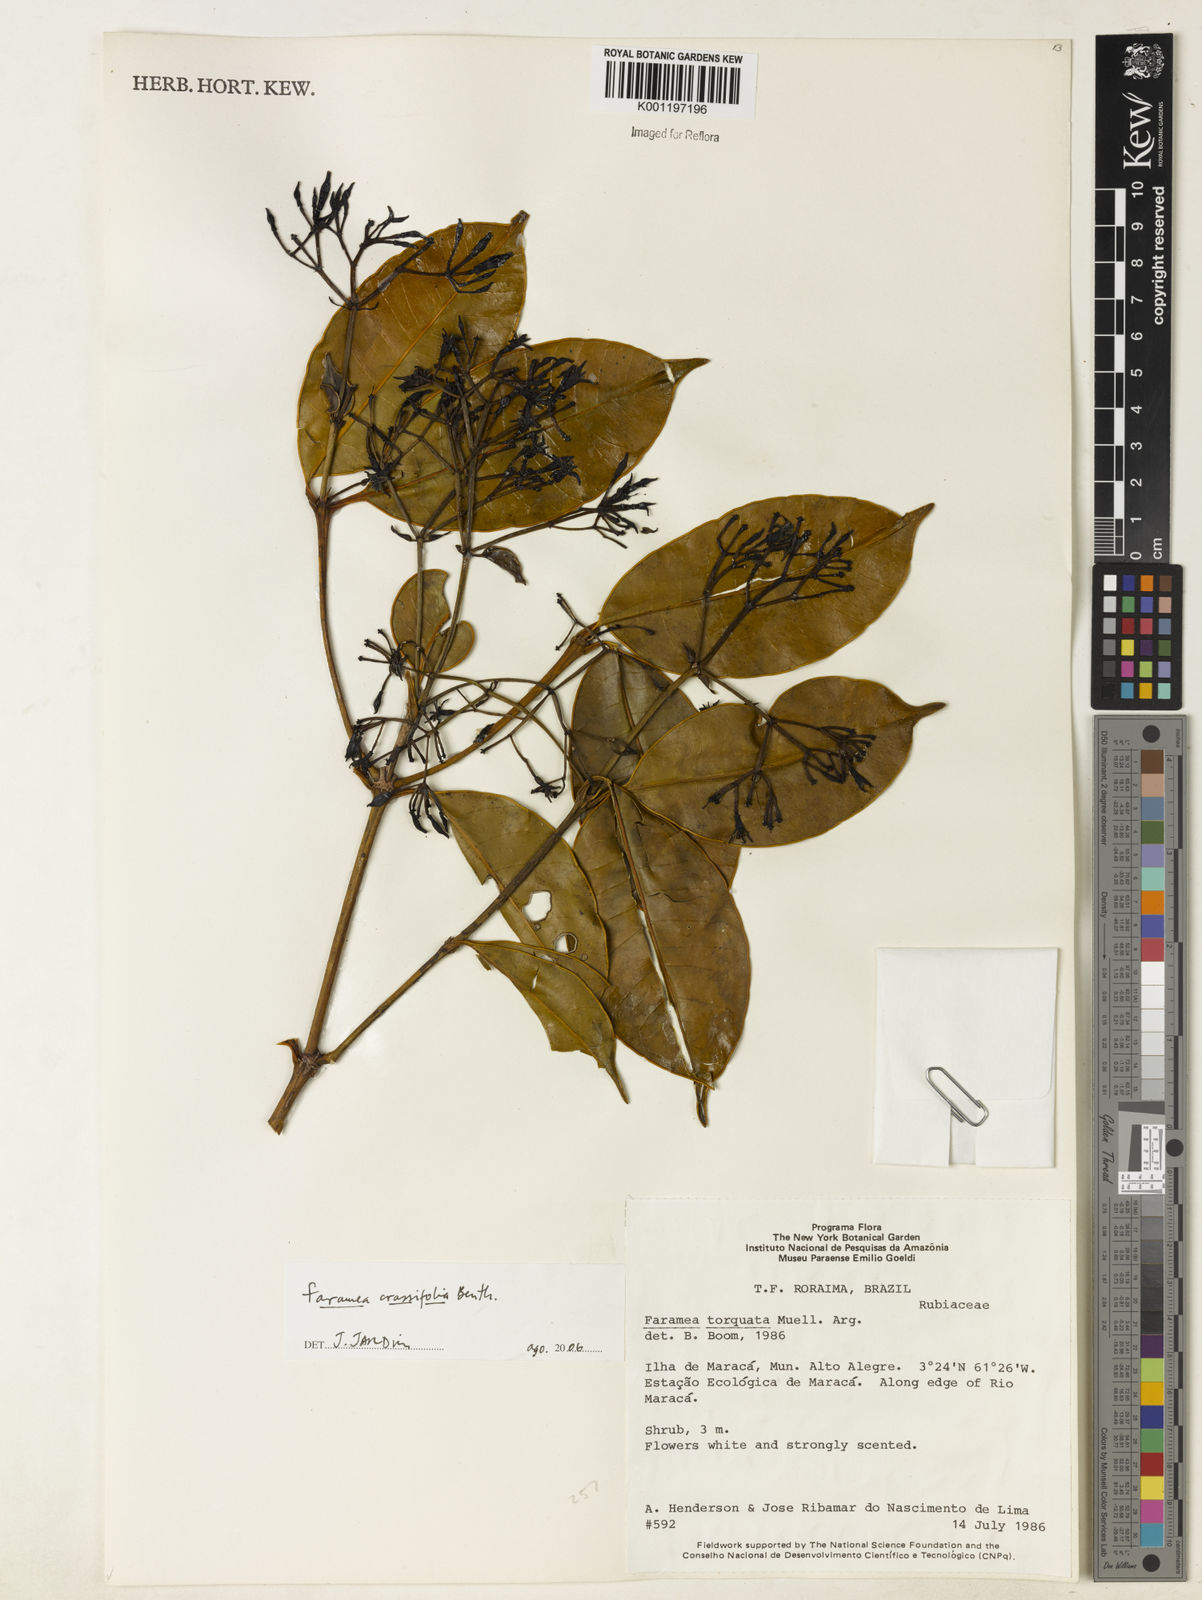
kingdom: Plantae
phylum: Tracheophyta
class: Magnoliopsida
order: Gentianales
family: Rubiaceae
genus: Faramea
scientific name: Faramea crassifolia
